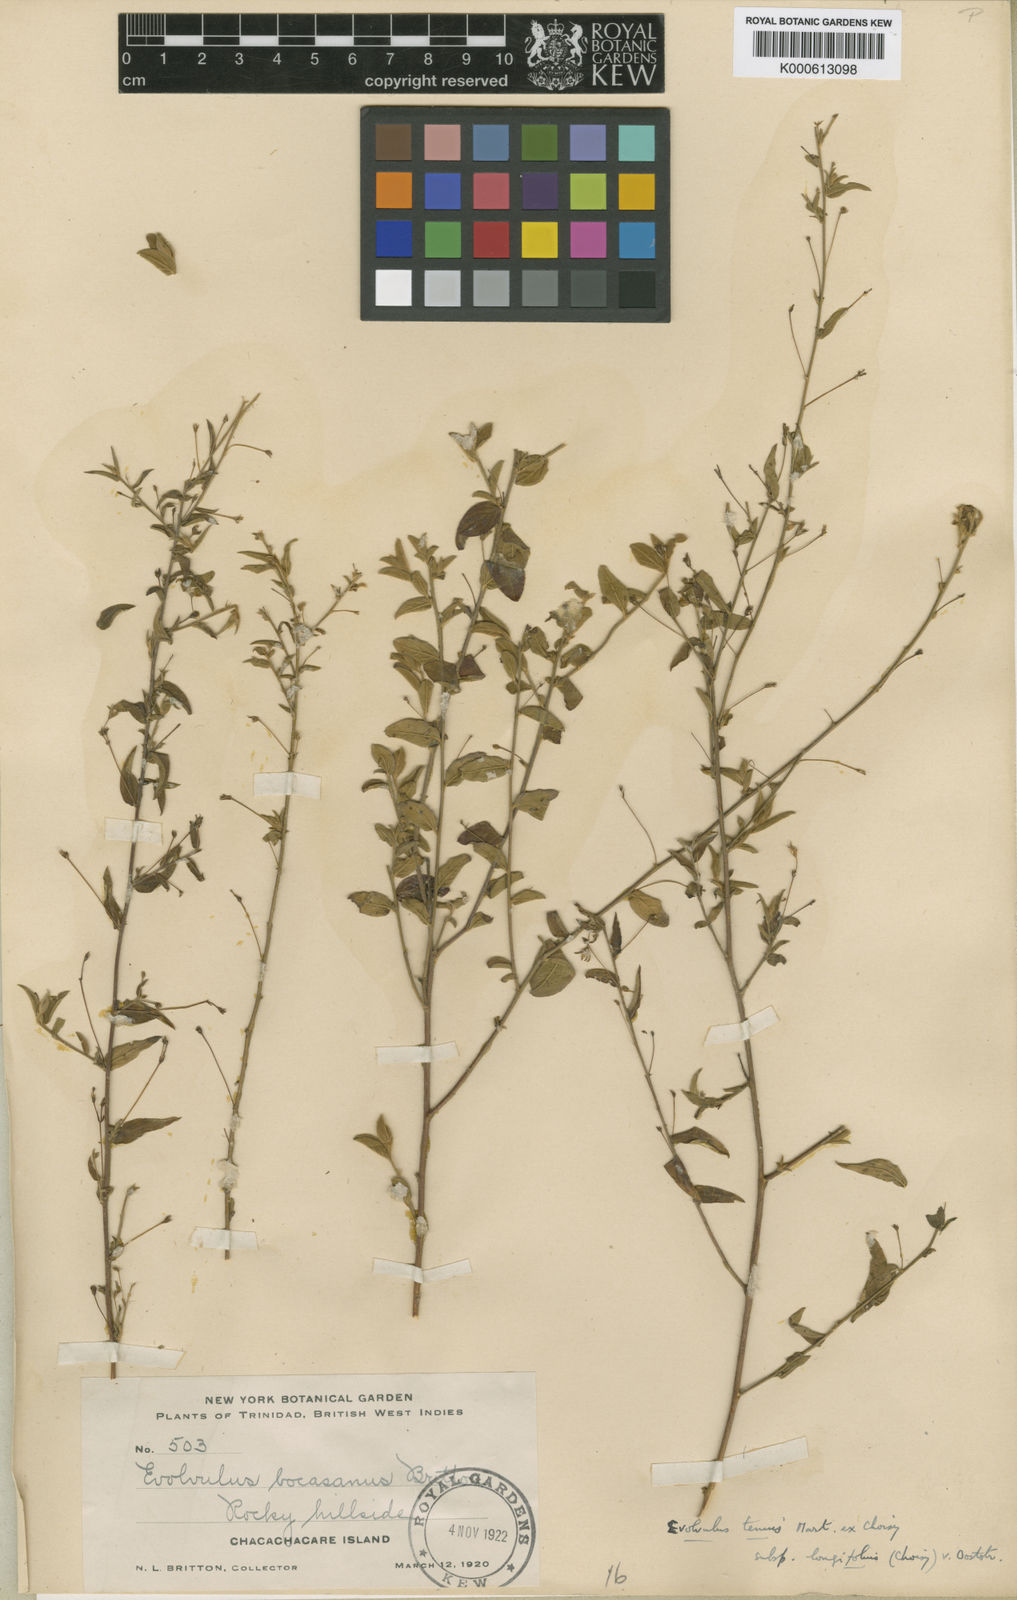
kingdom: Plantae
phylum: Tracheophyta
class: Magnoliopsida
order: Solanales
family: Convolvulaceae
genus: Evolvulus
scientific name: Evolvulus tenuis
